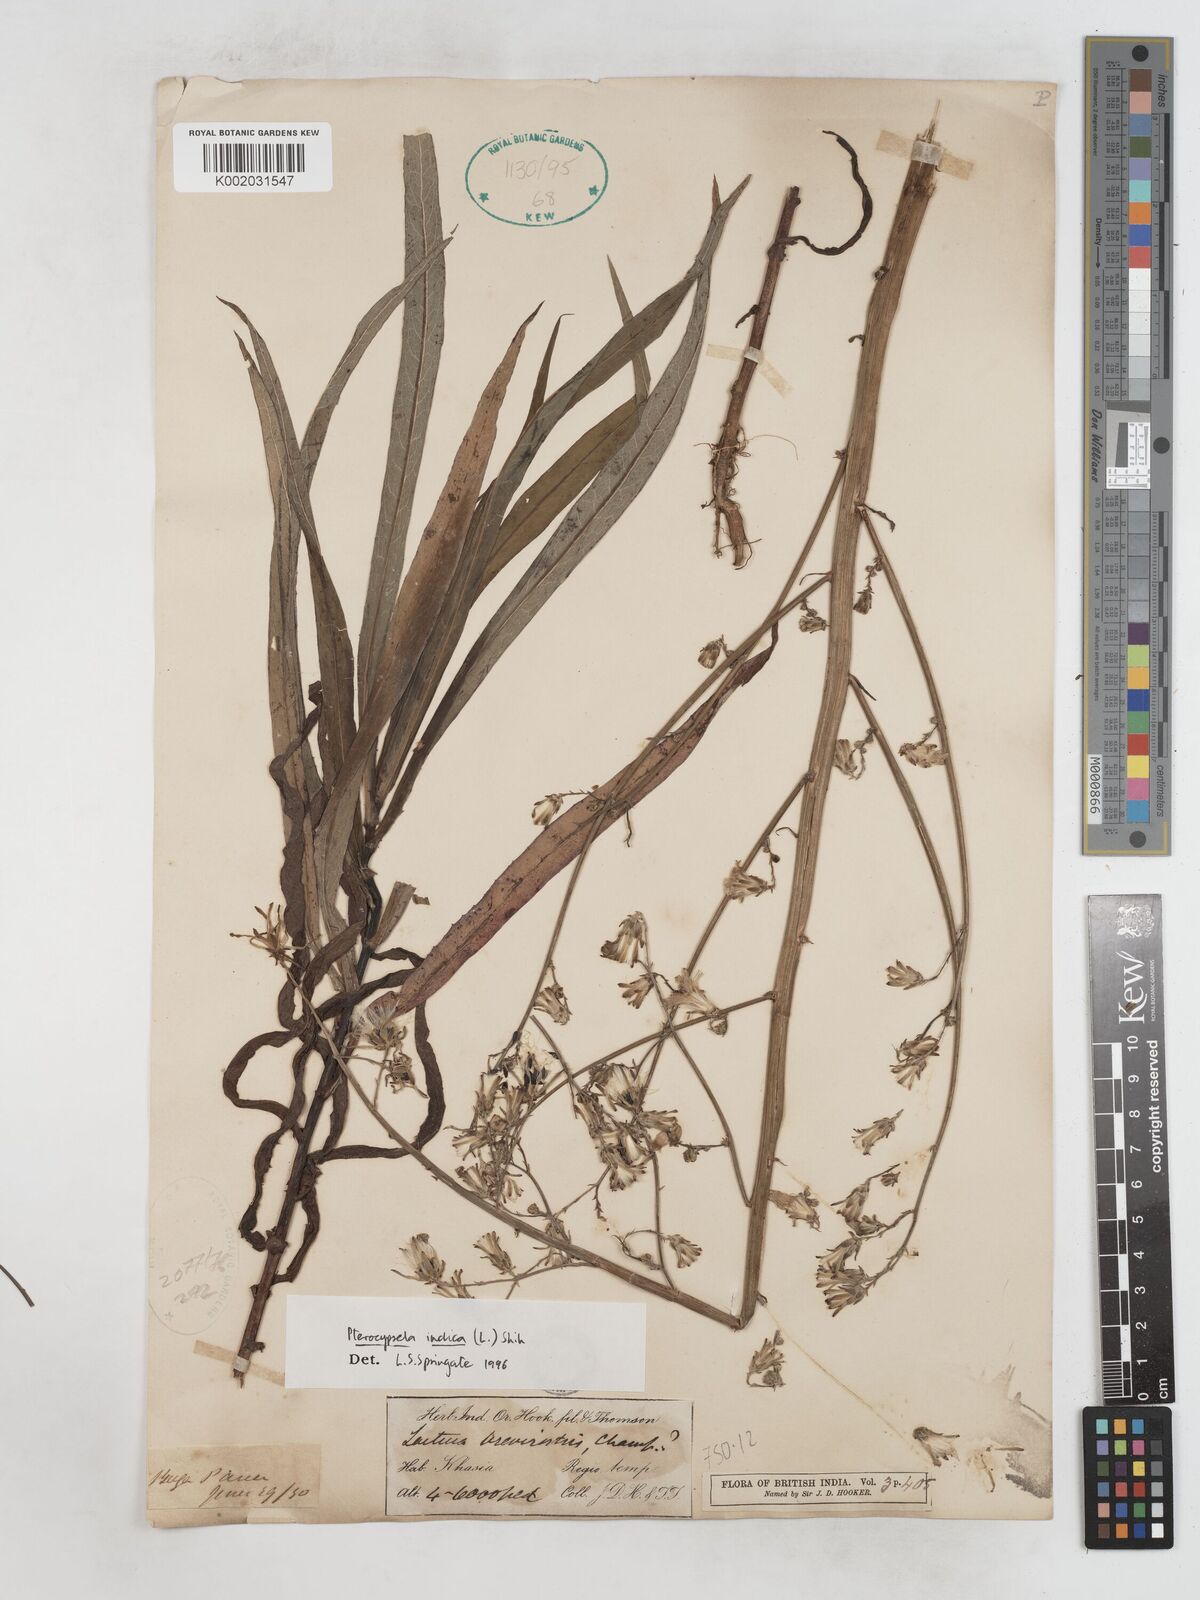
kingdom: Plantae
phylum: Tracheophyta
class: Magnoliopsida
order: Asterales
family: Asteraceae
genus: Lactuca
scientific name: Lactuca indica
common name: Wild lettuce
